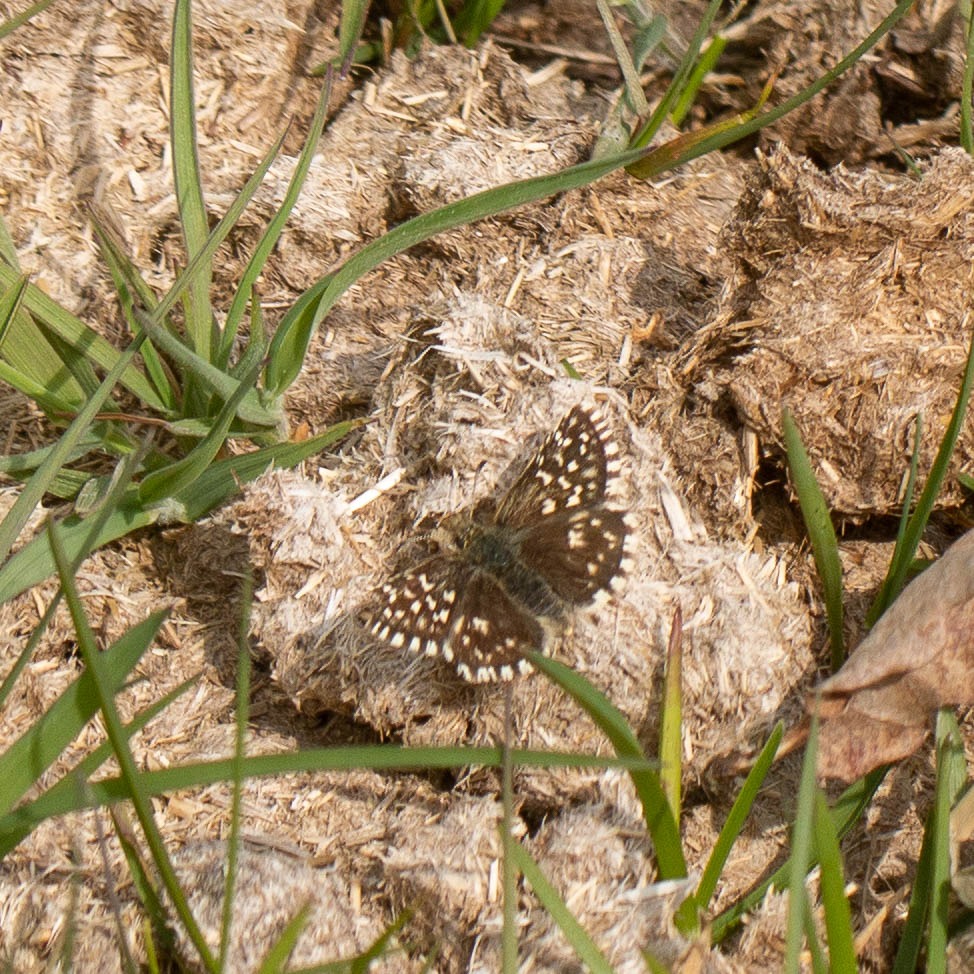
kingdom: Animalia
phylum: Arthropoda
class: Insecta
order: Lepidoptera
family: Hesperiidae
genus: Pyrgus
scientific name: Pyrgus malvae
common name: Spættet bredpande
